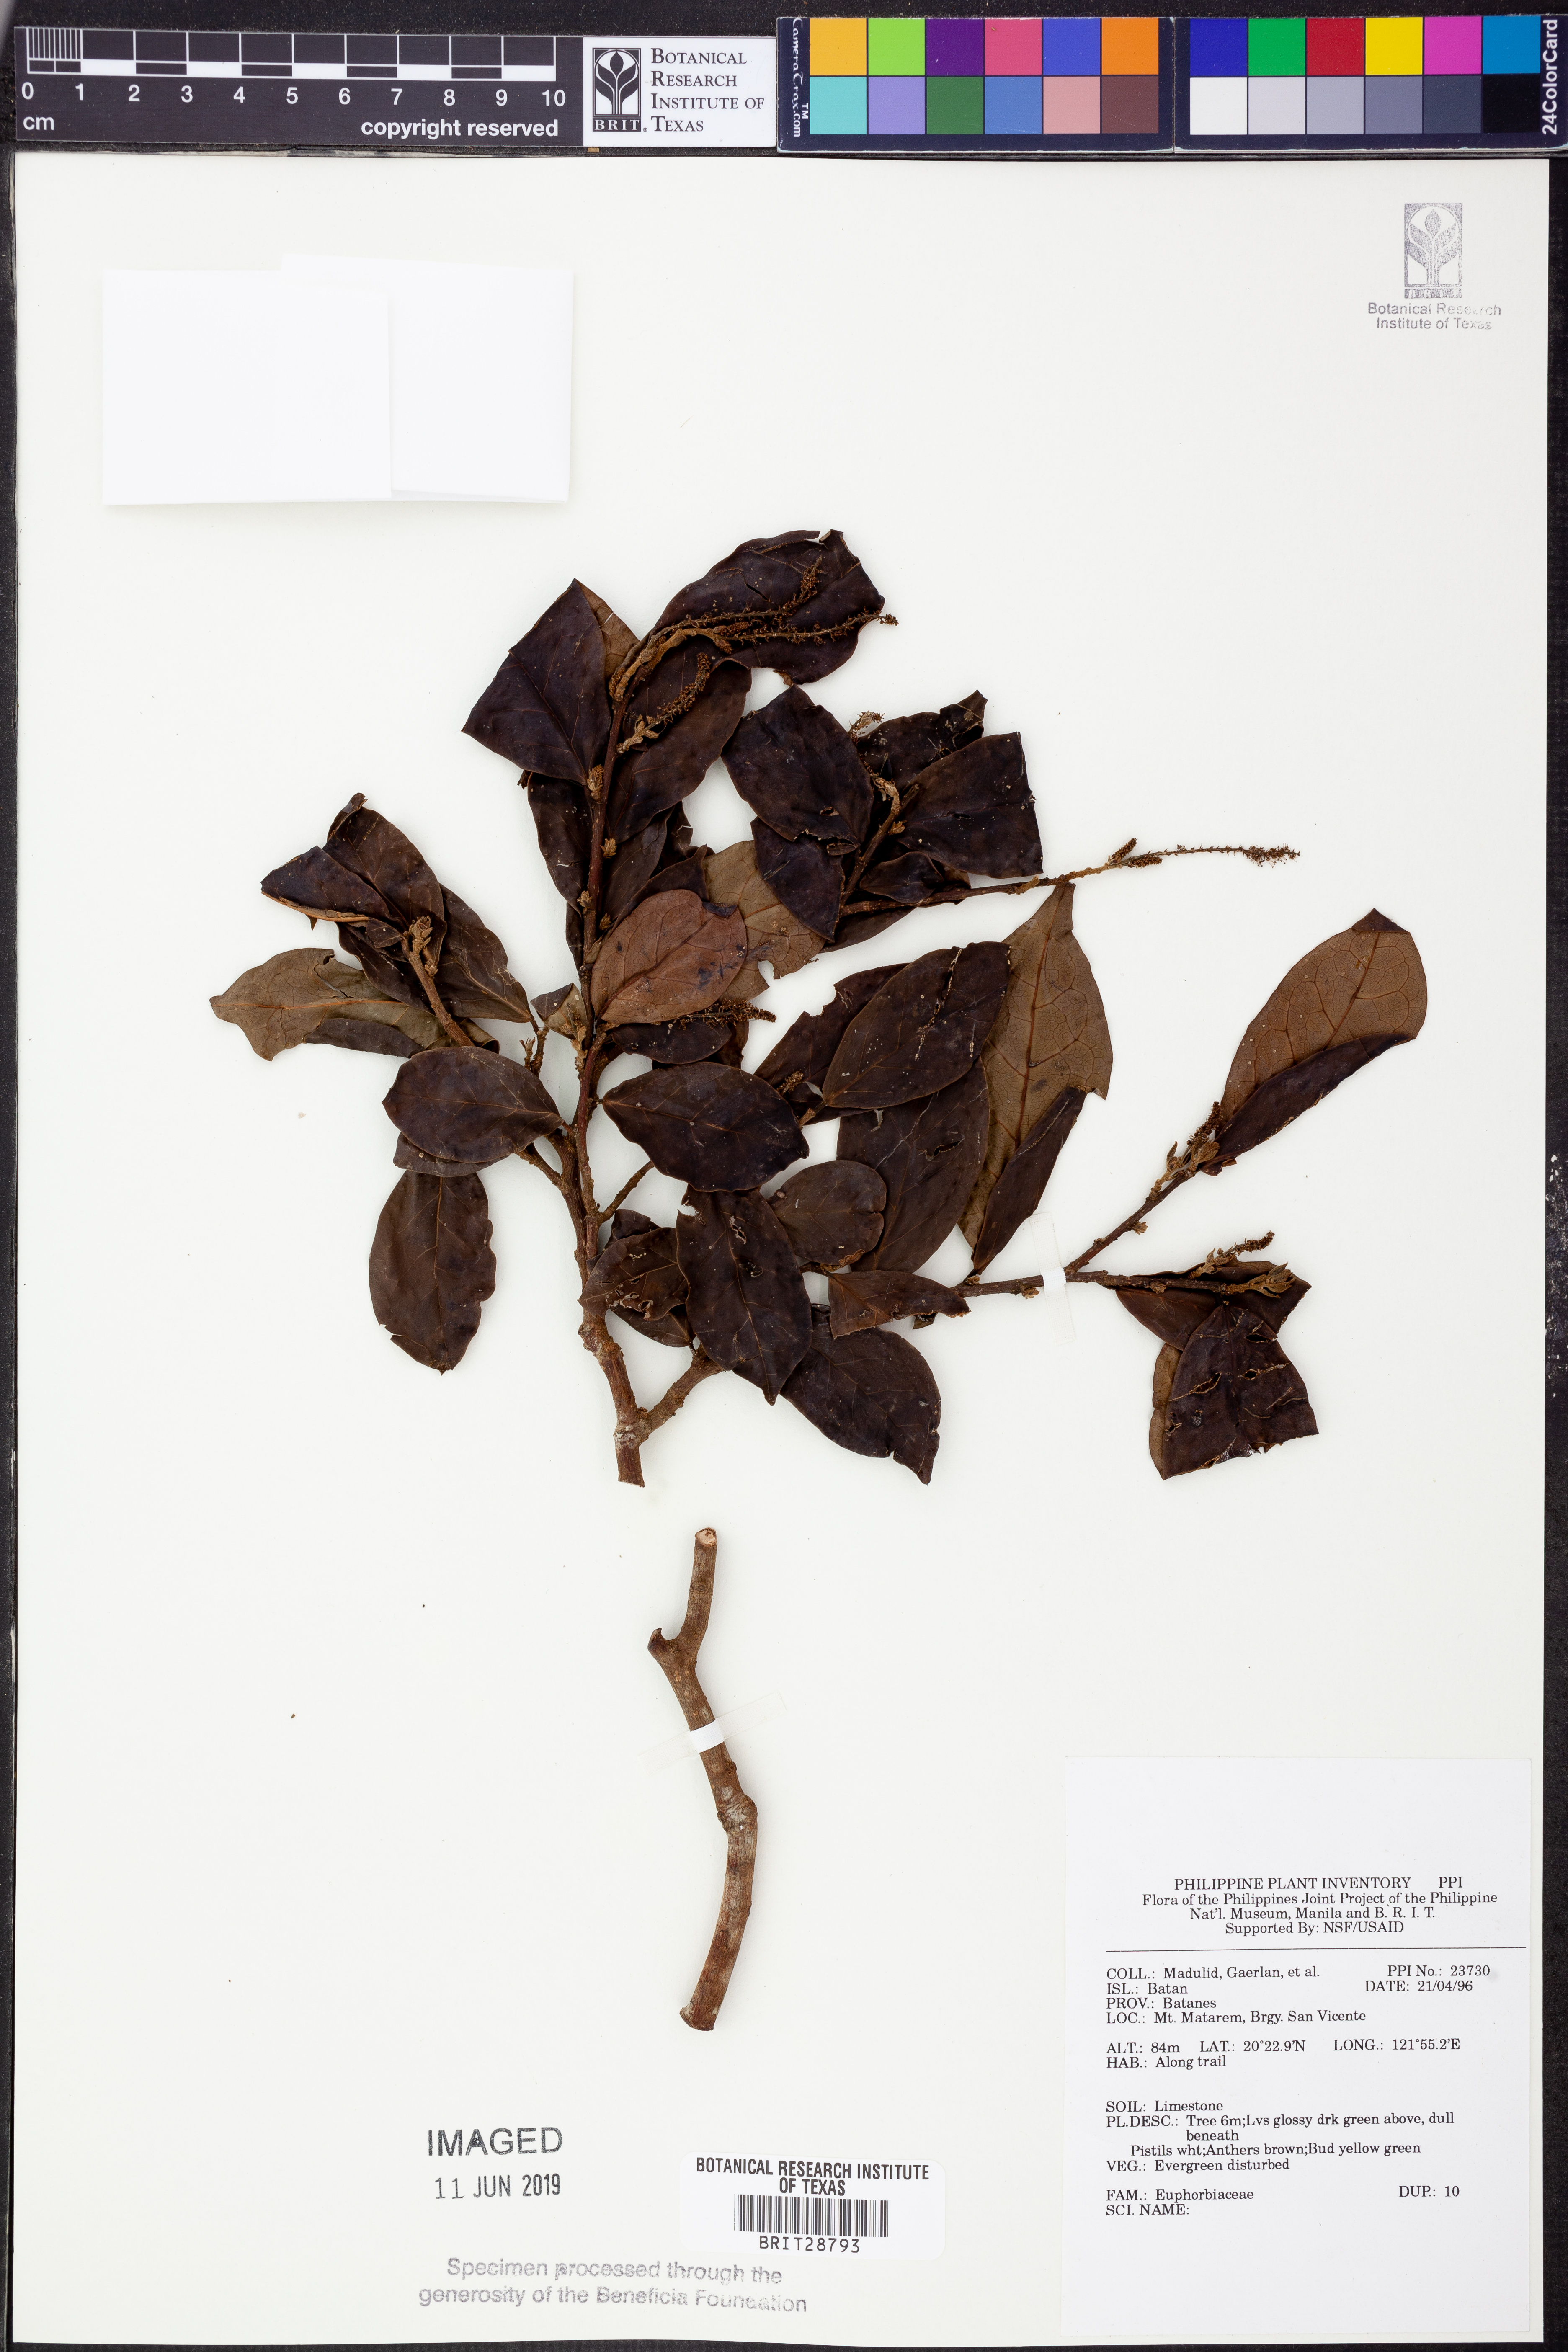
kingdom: Plantae
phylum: Tracheophyta
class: Magnoliopsida
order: Malpighiales
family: Euphorbiaceae
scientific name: Euphorbiaceae
